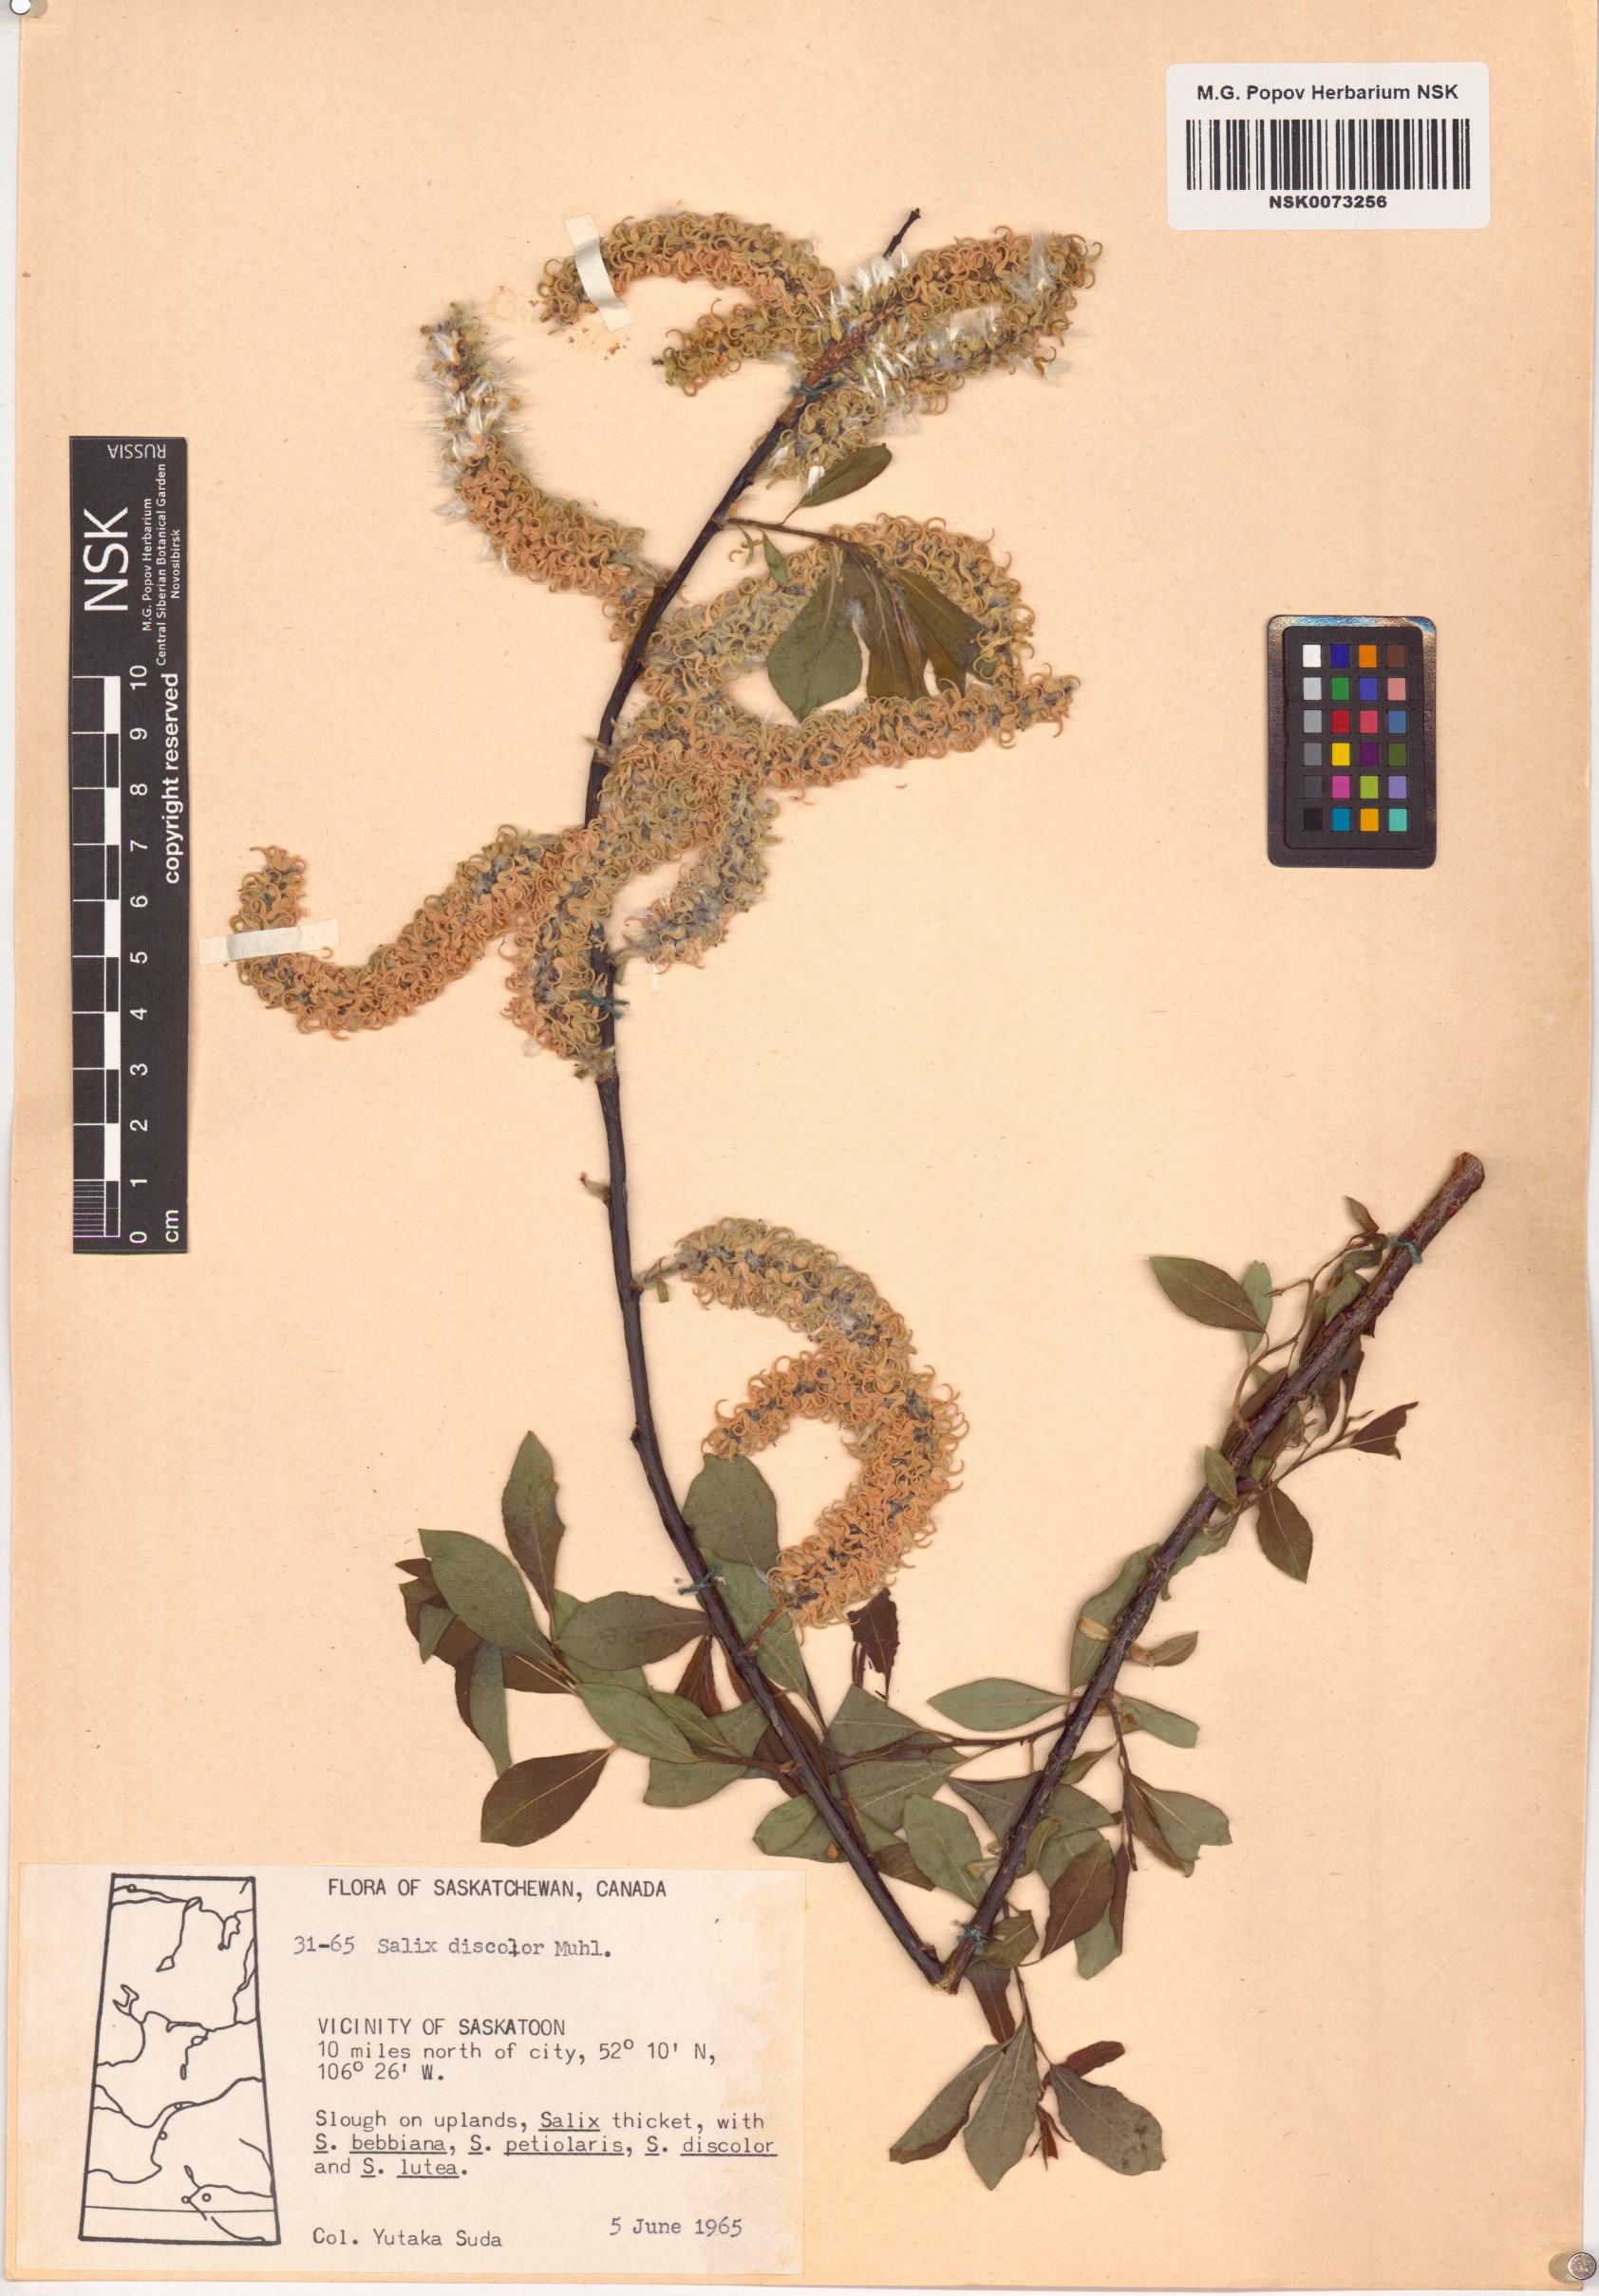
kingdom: Plantae
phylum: Tracheophyta
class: Magnoliopsida
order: Malpighiales
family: Salicaceae
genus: Salix
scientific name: Salix discolor
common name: Glaucous willow
